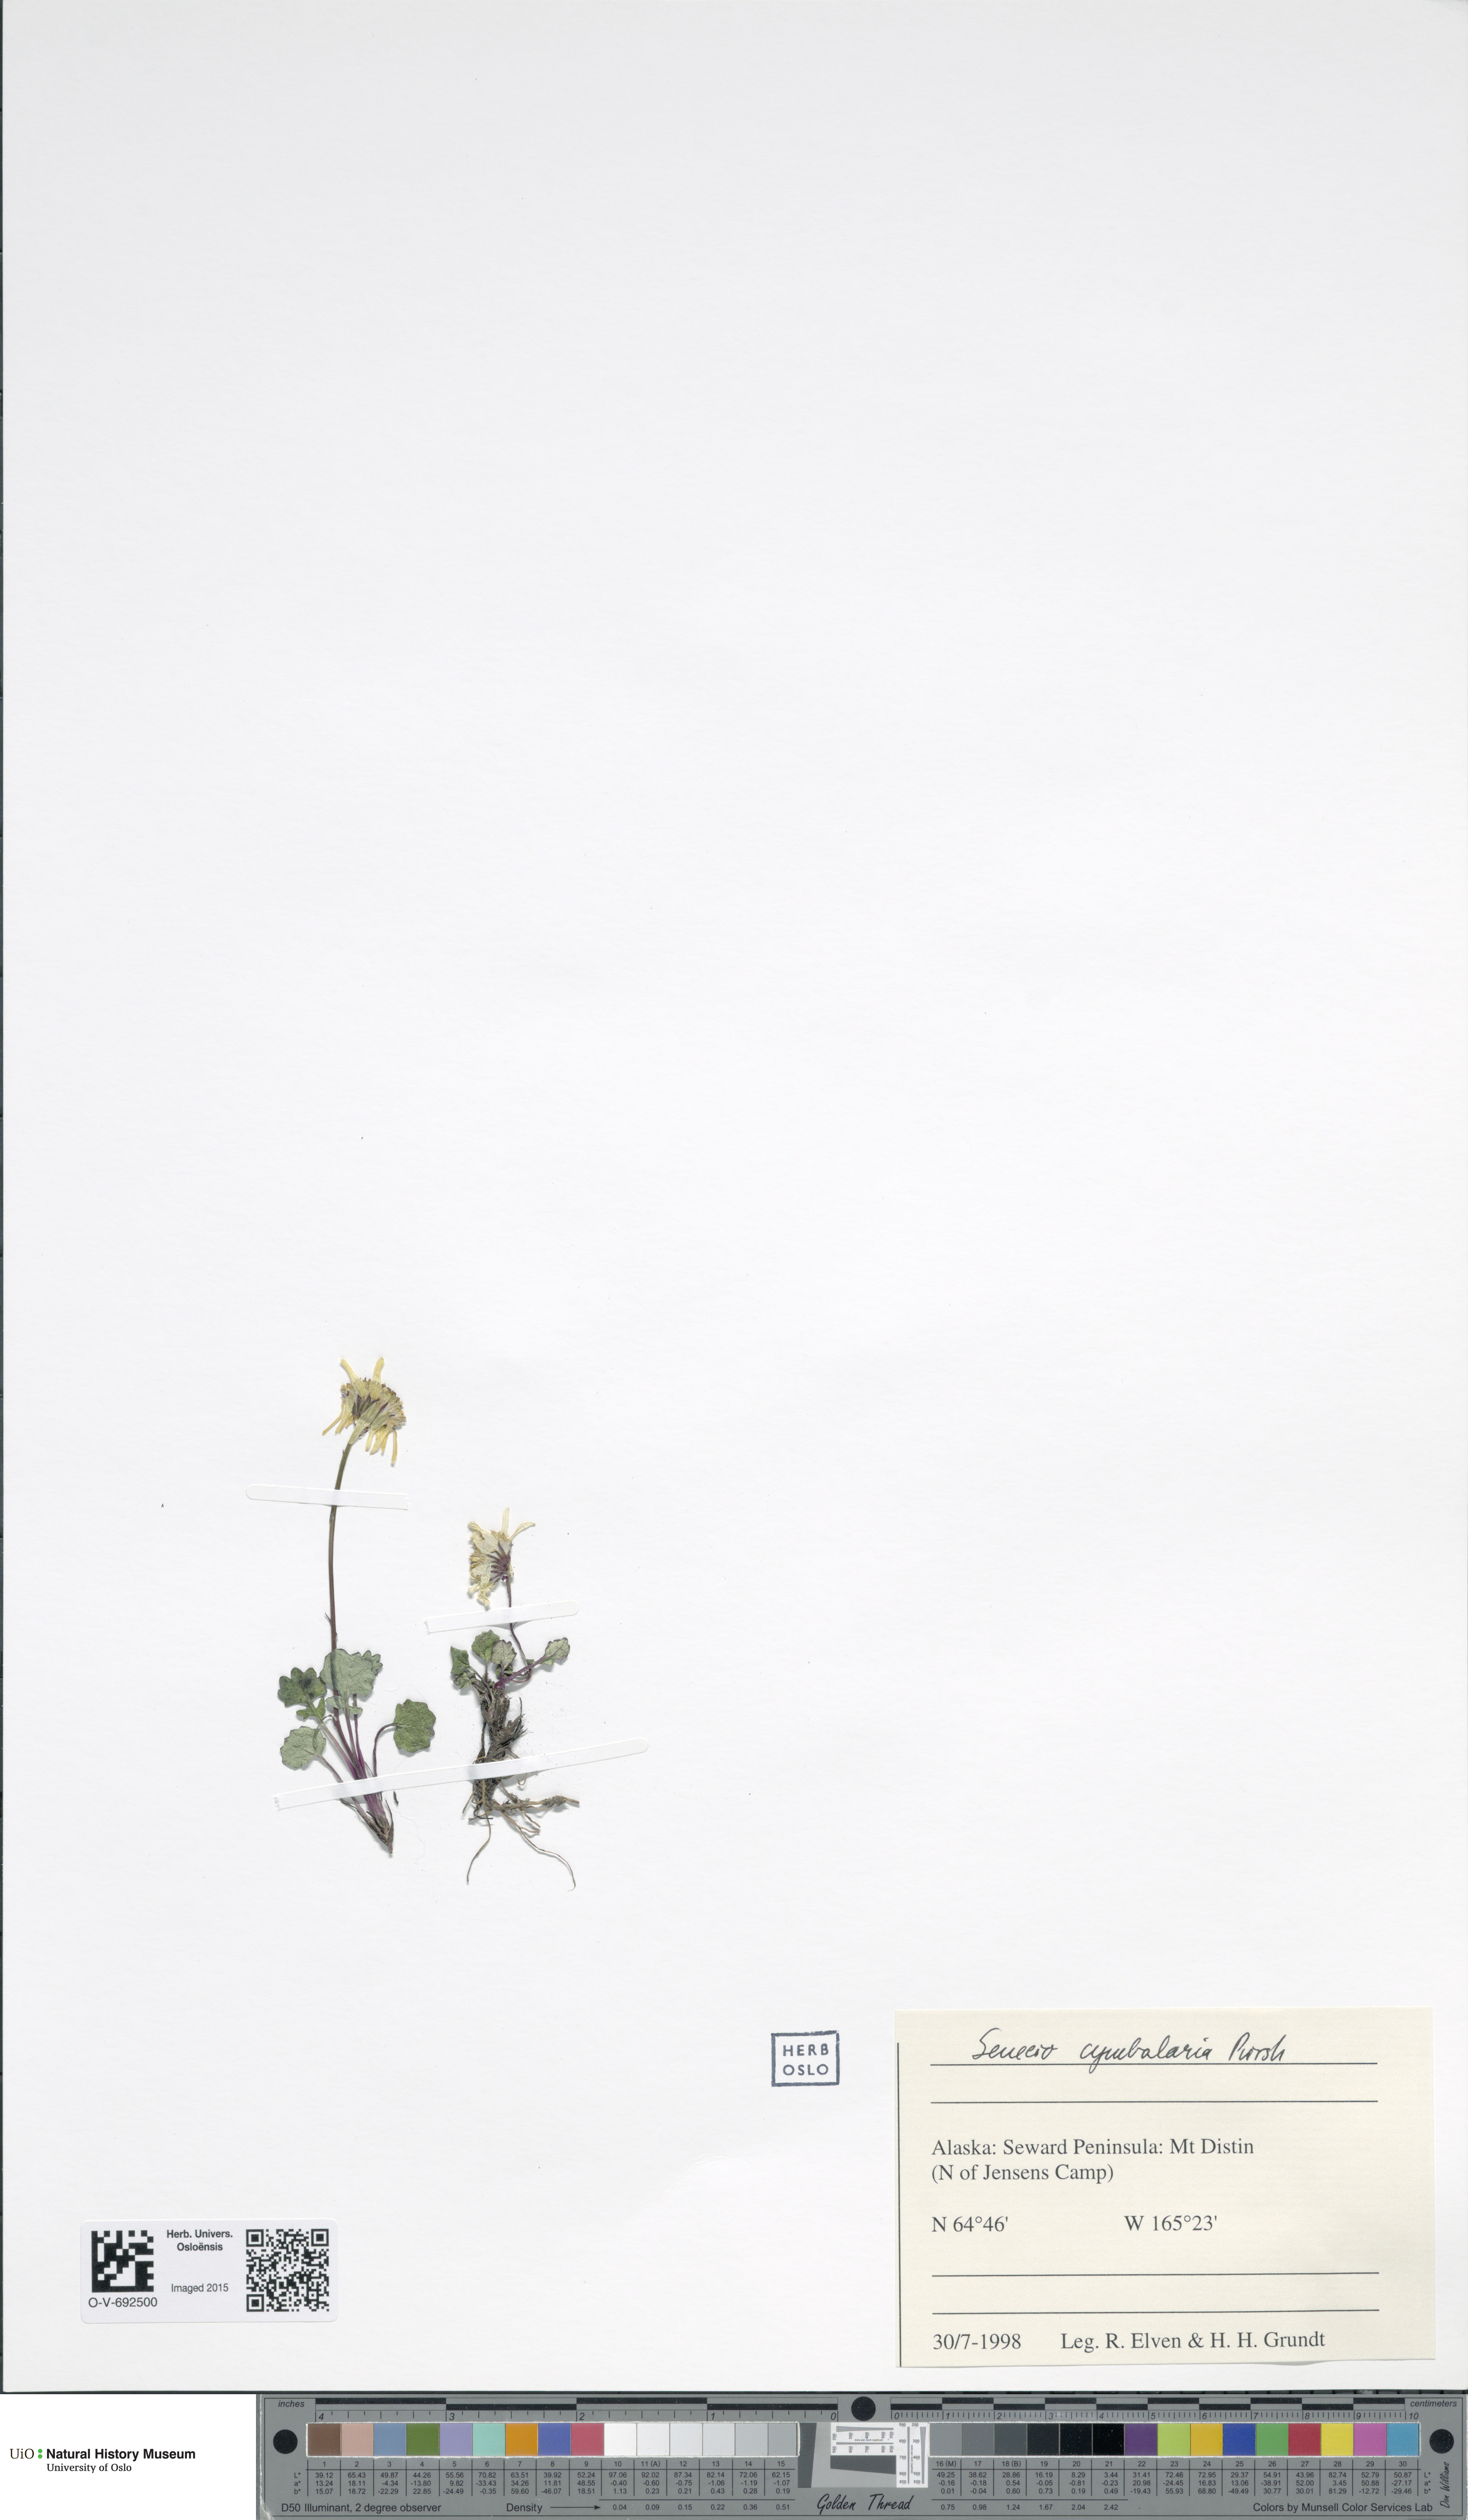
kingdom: Plantae
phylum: Tracheophyta
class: Magnoliopsida
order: Asterales
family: Asteraceae
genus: Packera
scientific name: Packera heterophylla
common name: Arctic butterweed
